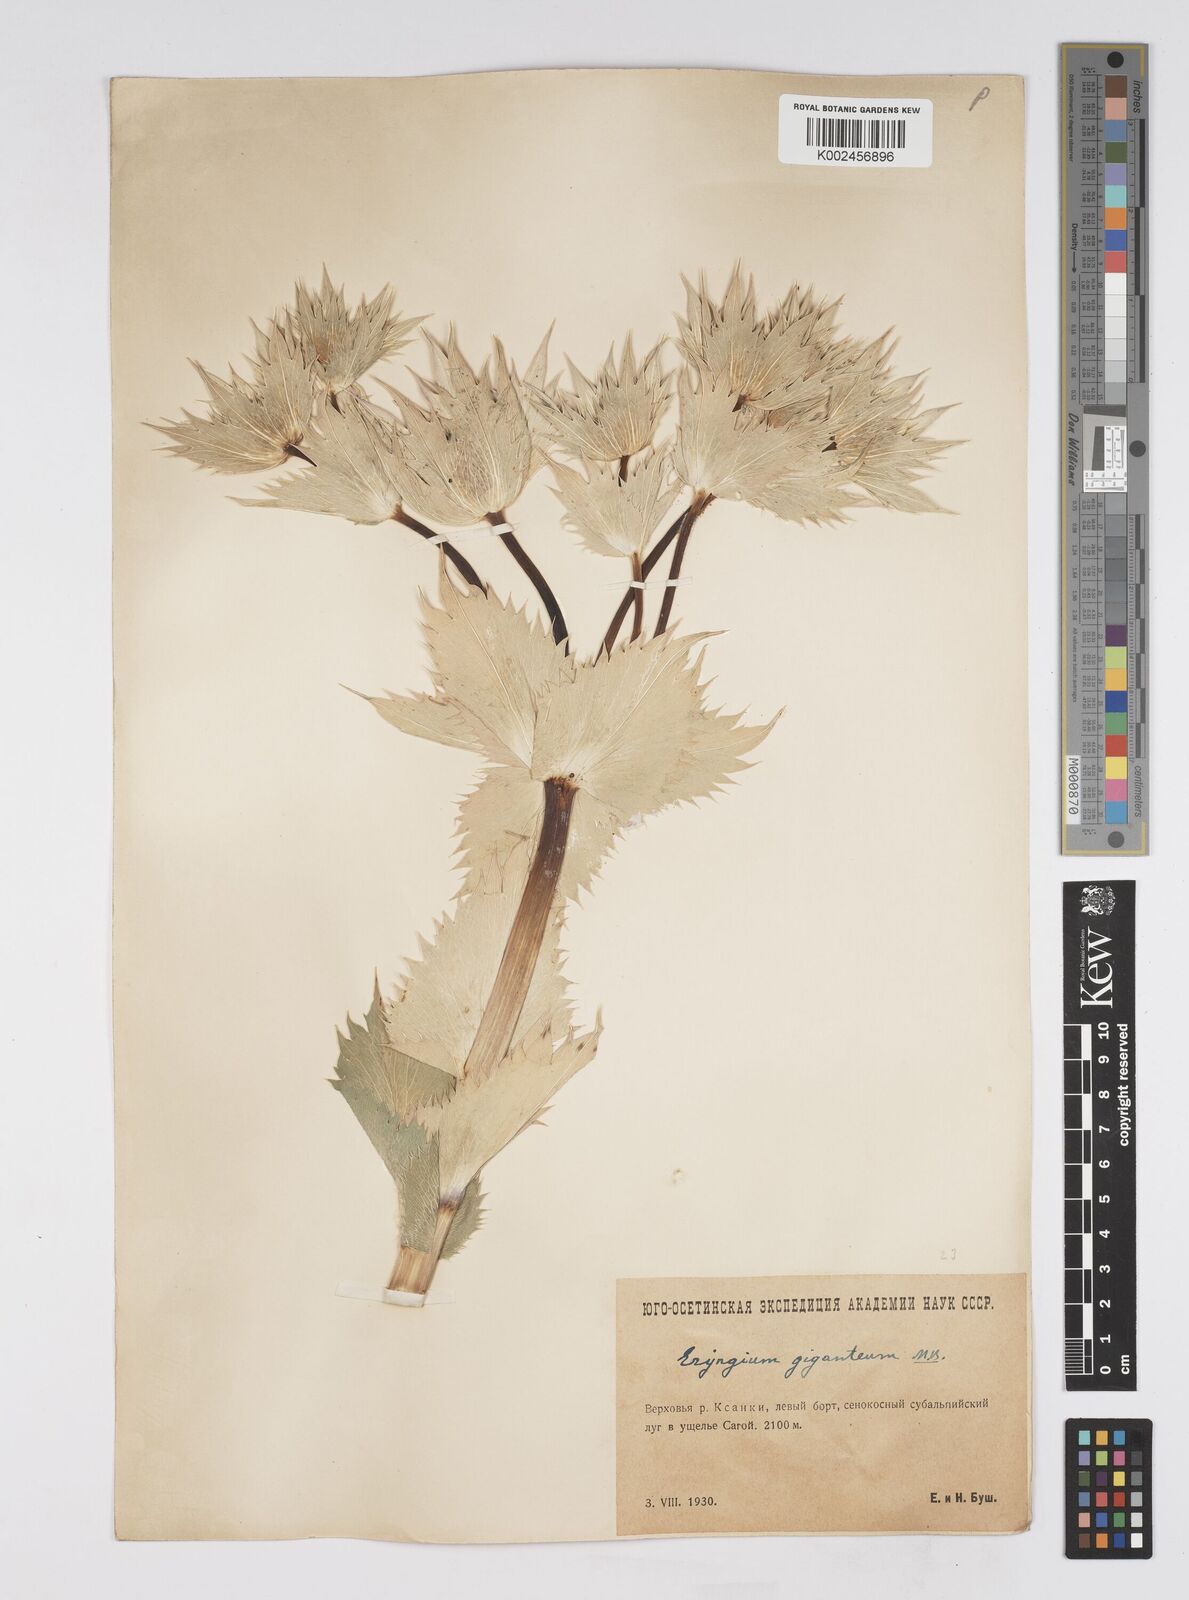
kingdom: Plantae
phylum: Tracheophyta
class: Magnoliopsida
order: Apiales
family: Apiaceae
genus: Eryngium
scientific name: Eryngium giganteum
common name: Tall eryngo
